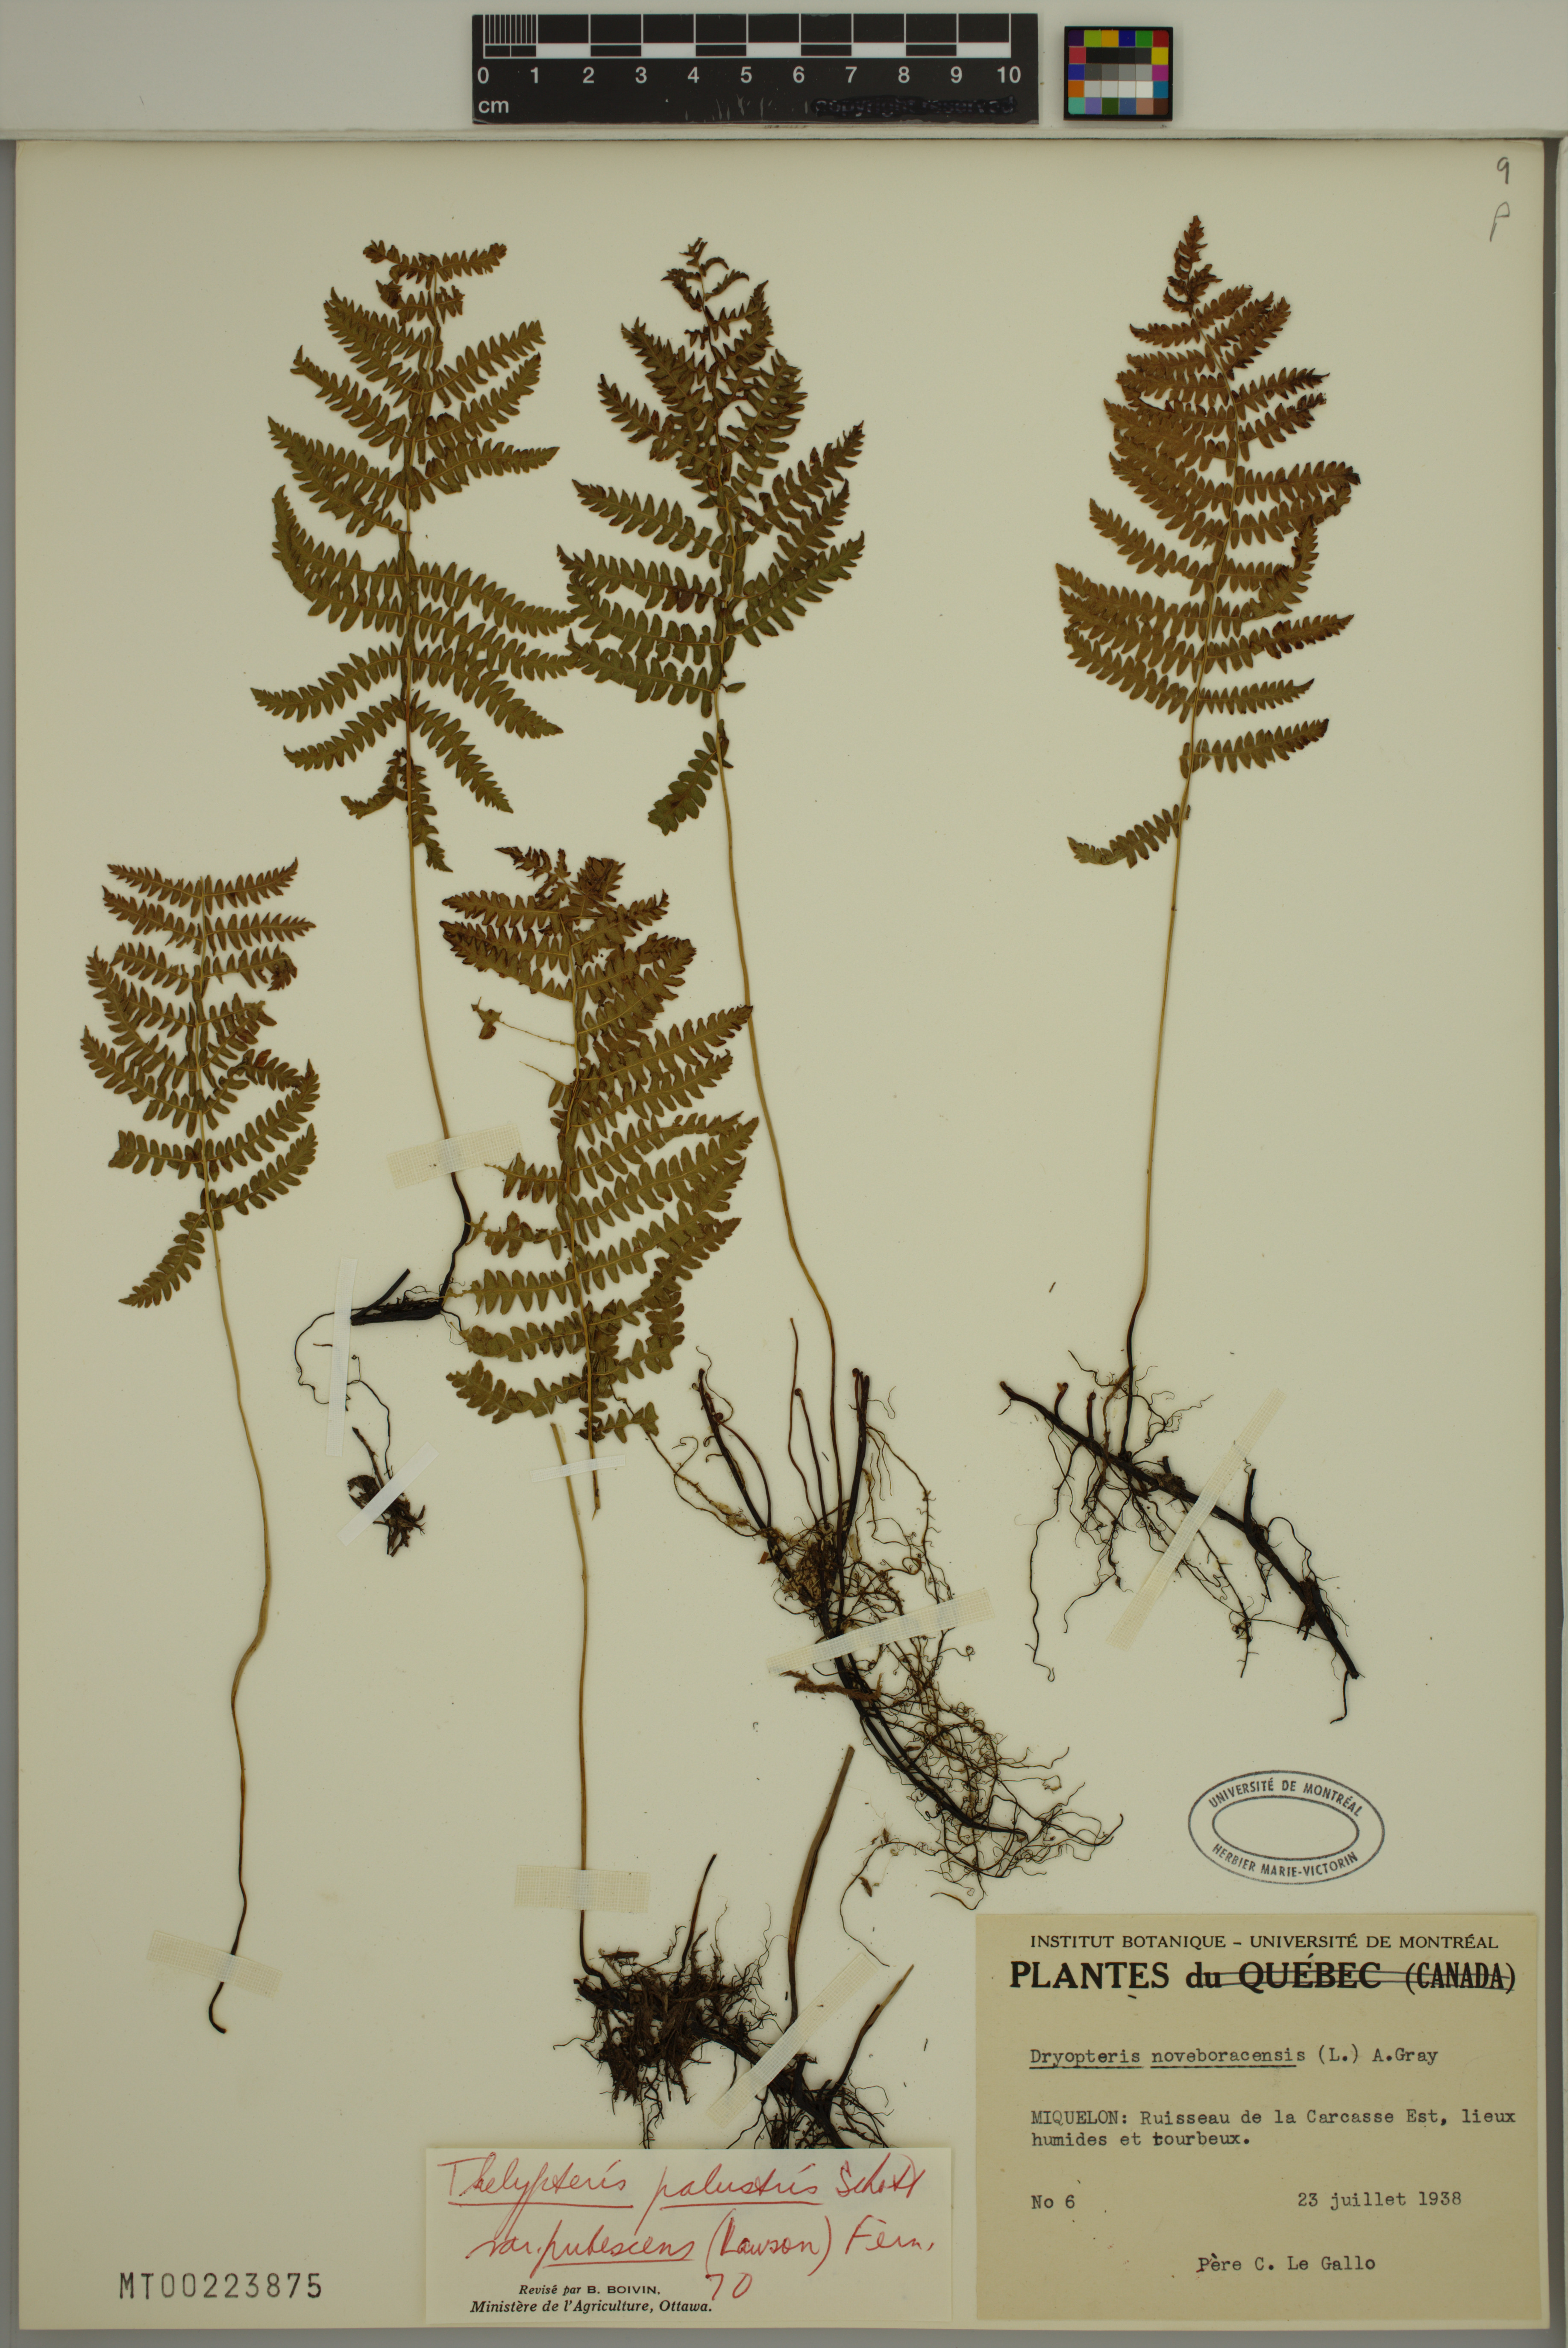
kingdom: Plantae
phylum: Tracheophyta
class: Polypodiopsida
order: Polypodiales
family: Thelypteridaceae
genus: Thelypteris
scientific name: Thelypteris palustris
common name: Marsh fern
